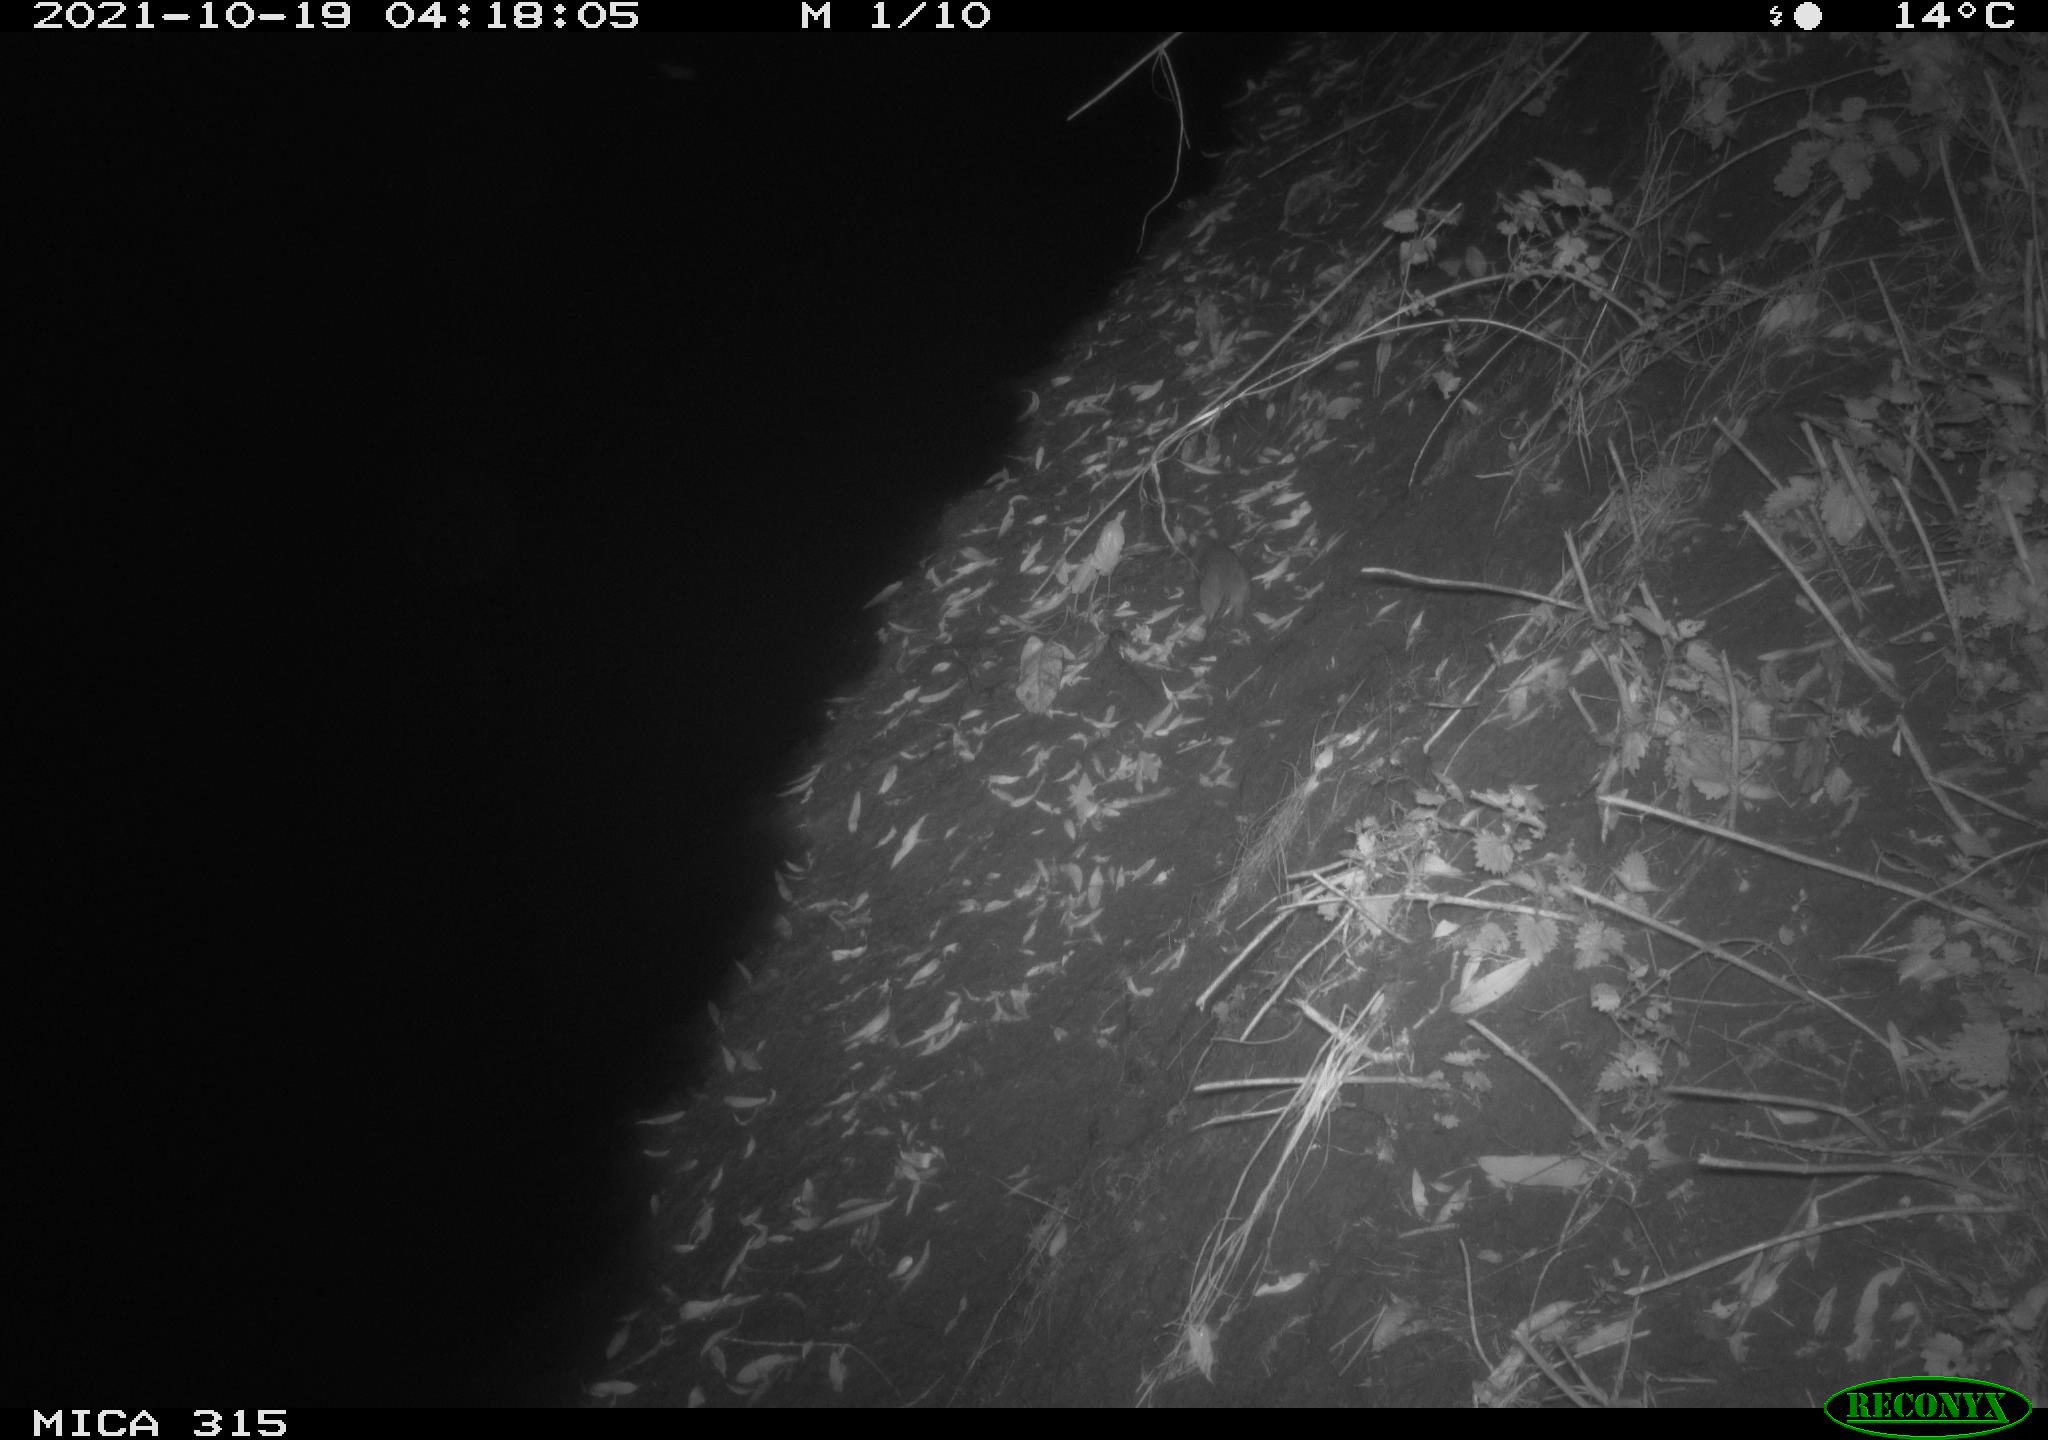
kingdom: Animalia
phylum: Chordata
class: Mammalia
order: Rodentia
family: Muridae
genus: Rattus
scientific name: Rattus norvegicus
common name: Brown rat
